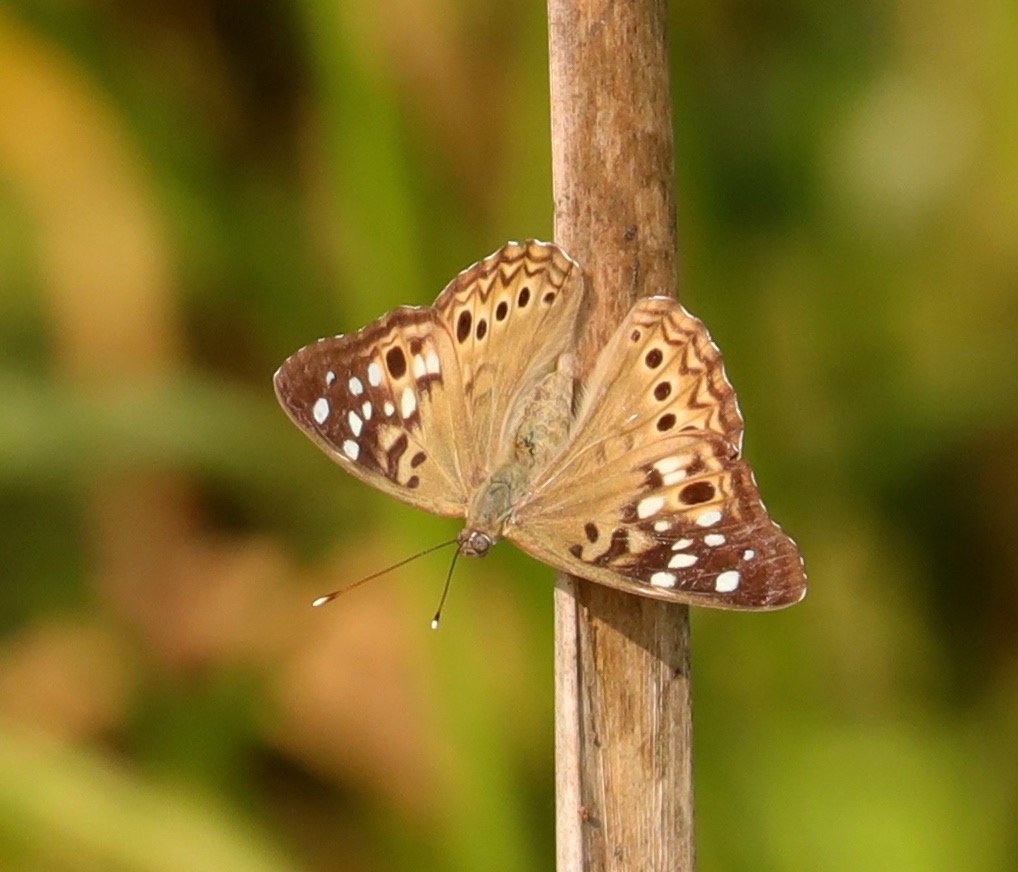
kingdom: Animalia
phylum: Arthropoda
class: Insecta
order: Lepidoptera
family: Nymphalidae
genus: Asterocampa
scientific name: Asterocampa celtis
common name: Hackberry Emperor
